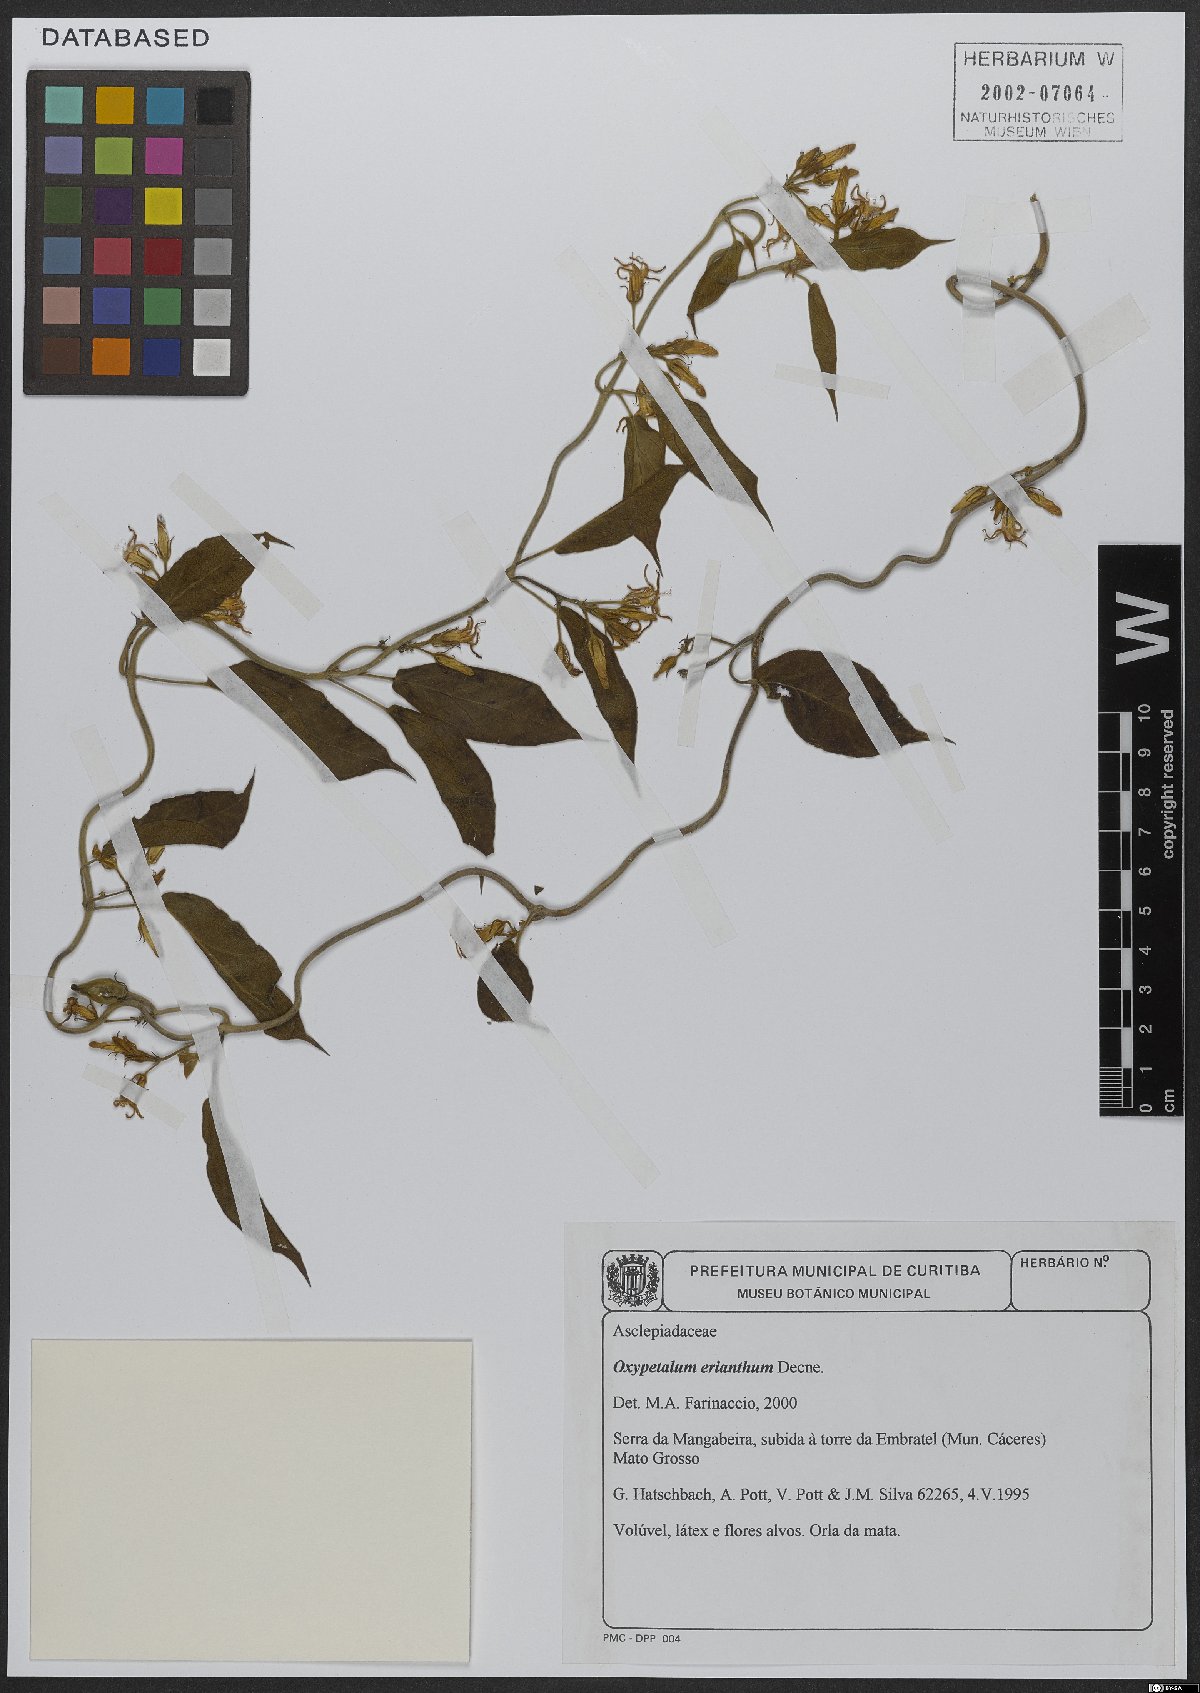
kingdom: Plantae
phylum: Tracheophyta
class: Magnoliopsida
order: Gentianales
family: Apocynaceae
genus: Oxypetalum
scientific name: Oxypetalum erianthum
